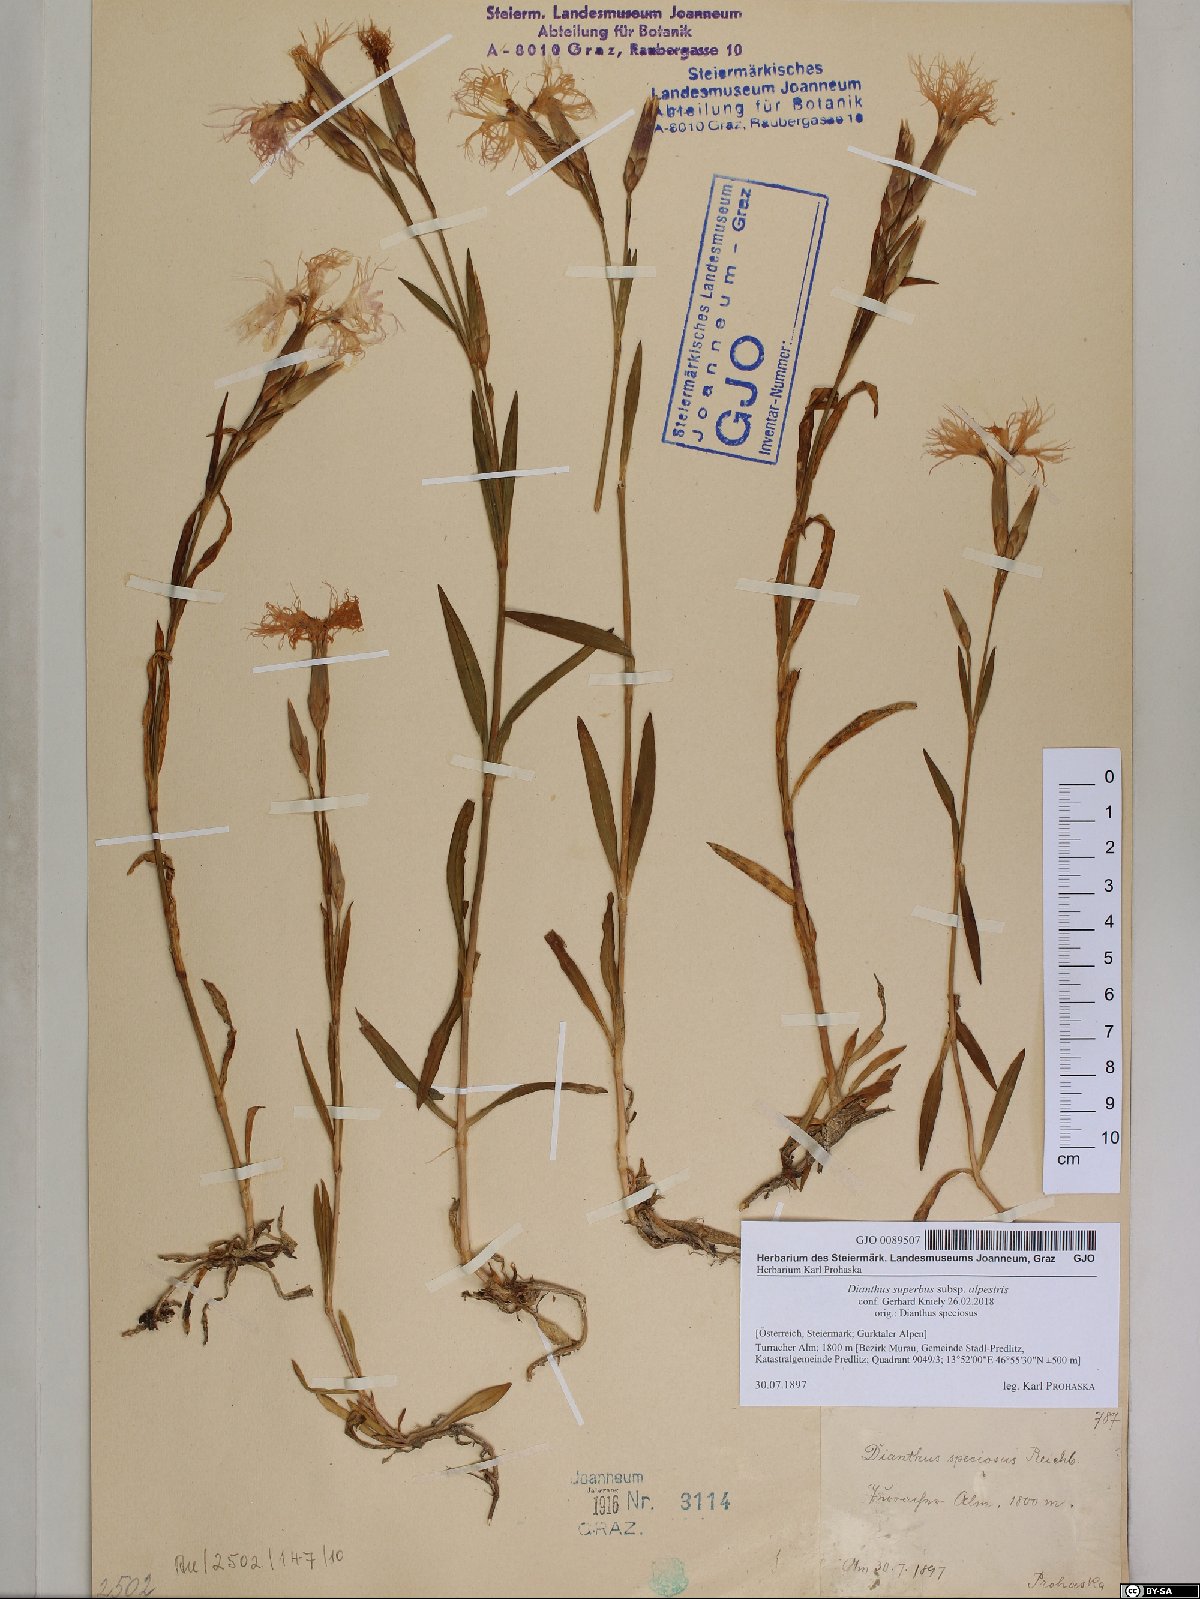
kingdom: Plantae
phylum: Tracheophyta
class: Magnoliopsida
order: Caryophyllales
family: Caryophyllaceae
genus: Dianthus
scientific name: Dianthus superbus
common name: Fringed pink
